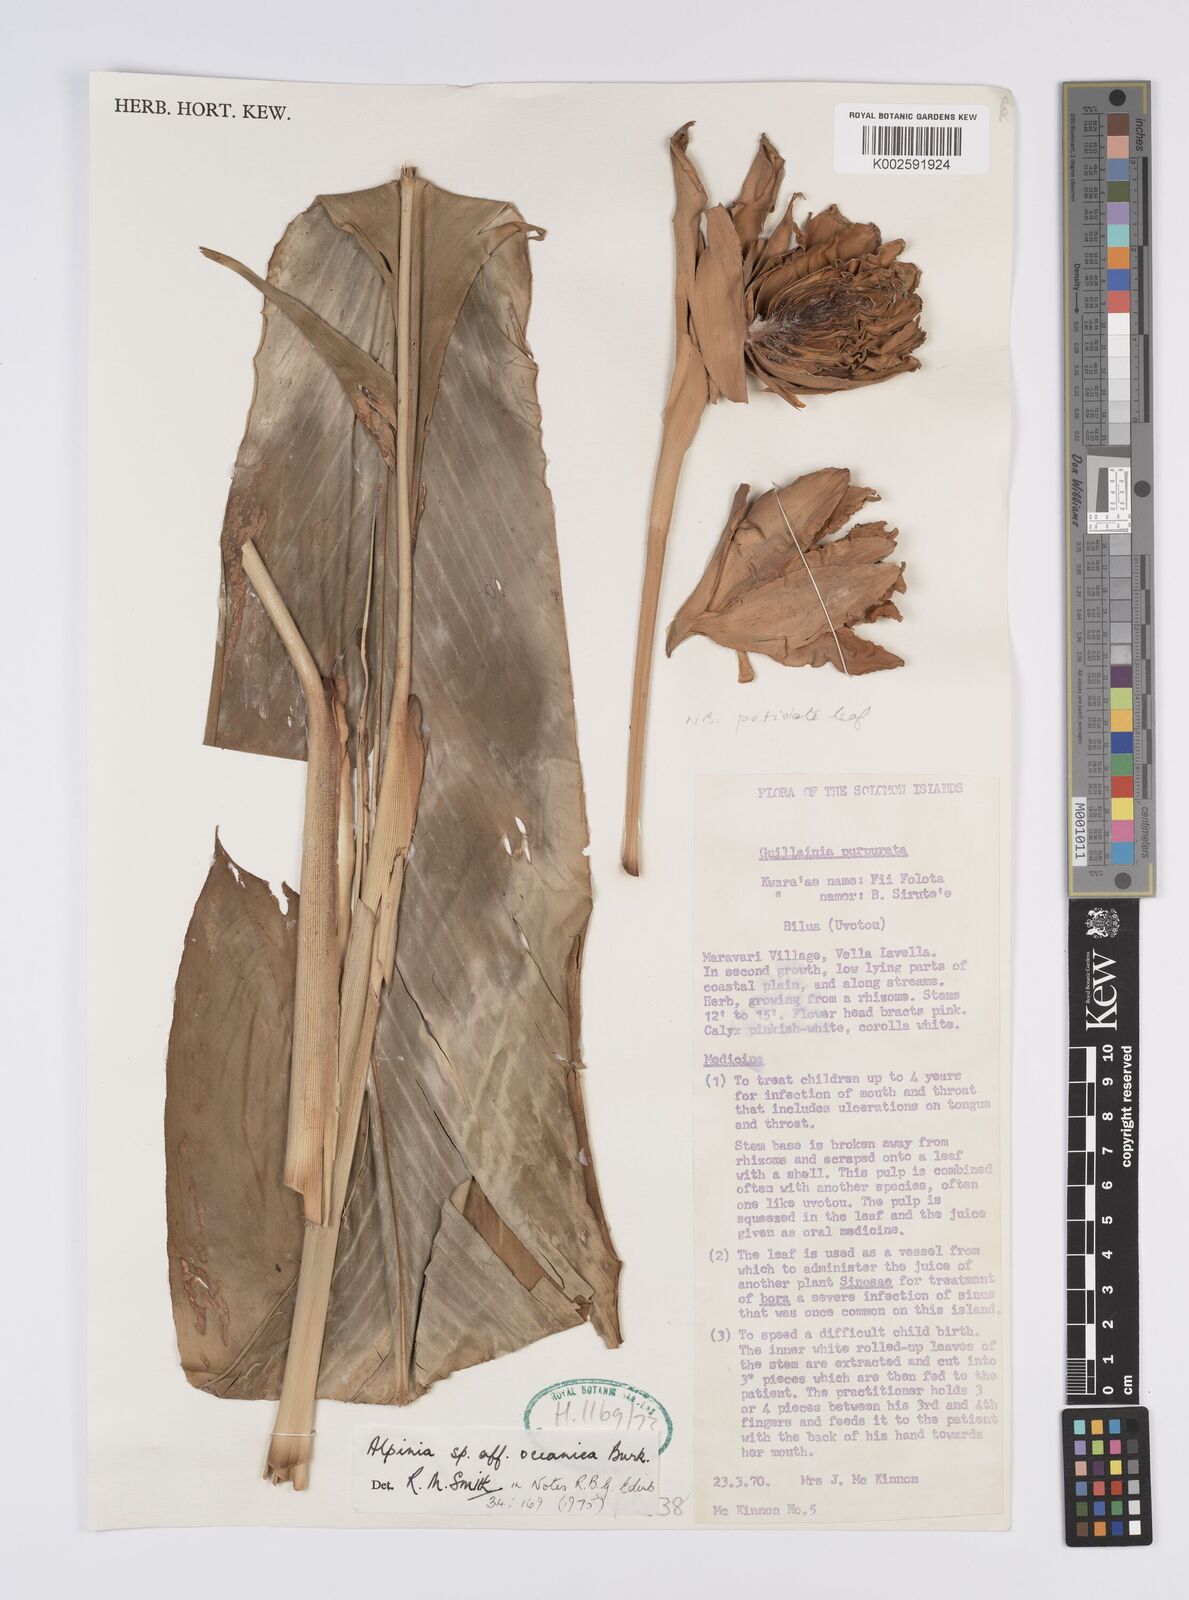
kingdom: Plantae
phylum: Tracheophyta
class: Liliopsida
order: Zingiberales
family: Zingiberaceae
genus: Alpinia
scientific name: Alpinia oceanica
